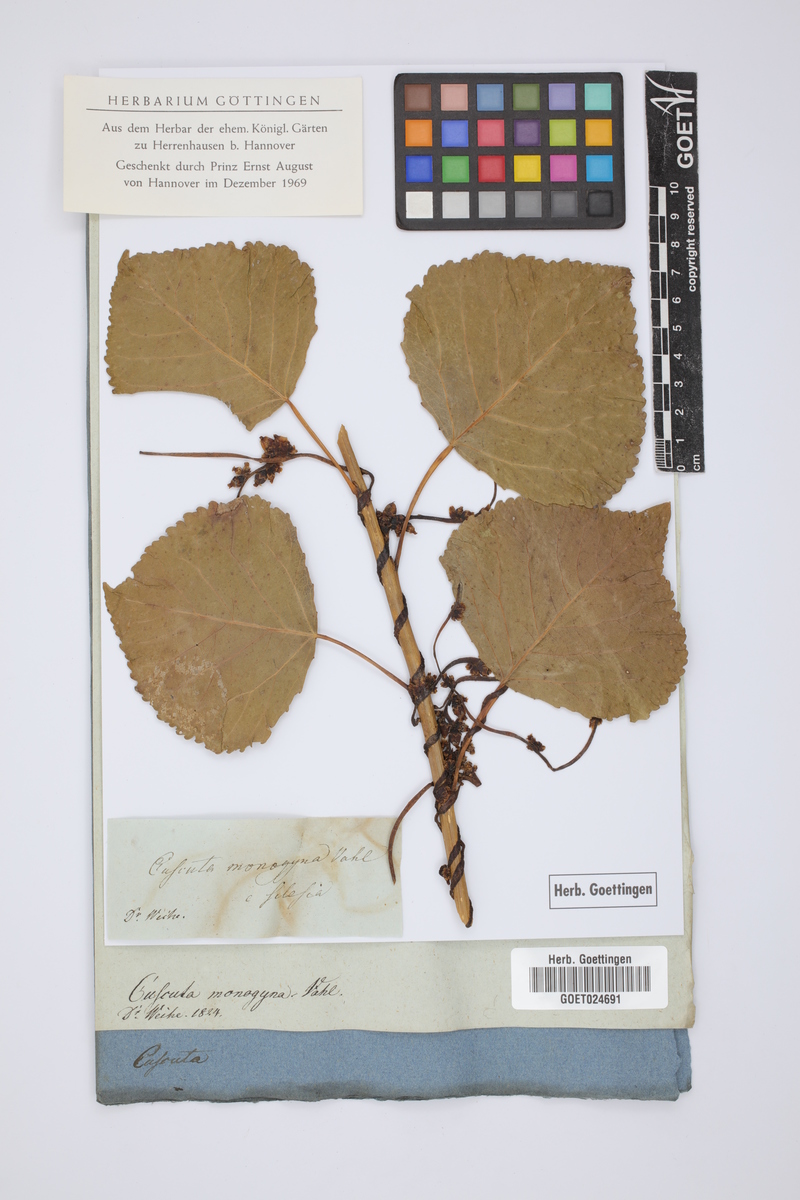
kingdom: Plantae
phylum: Tracheophyta
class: Magnoliopsida
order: Solanales
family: Convolvulaceae
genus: Cuscuta
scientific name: Cuscuta monogyna
